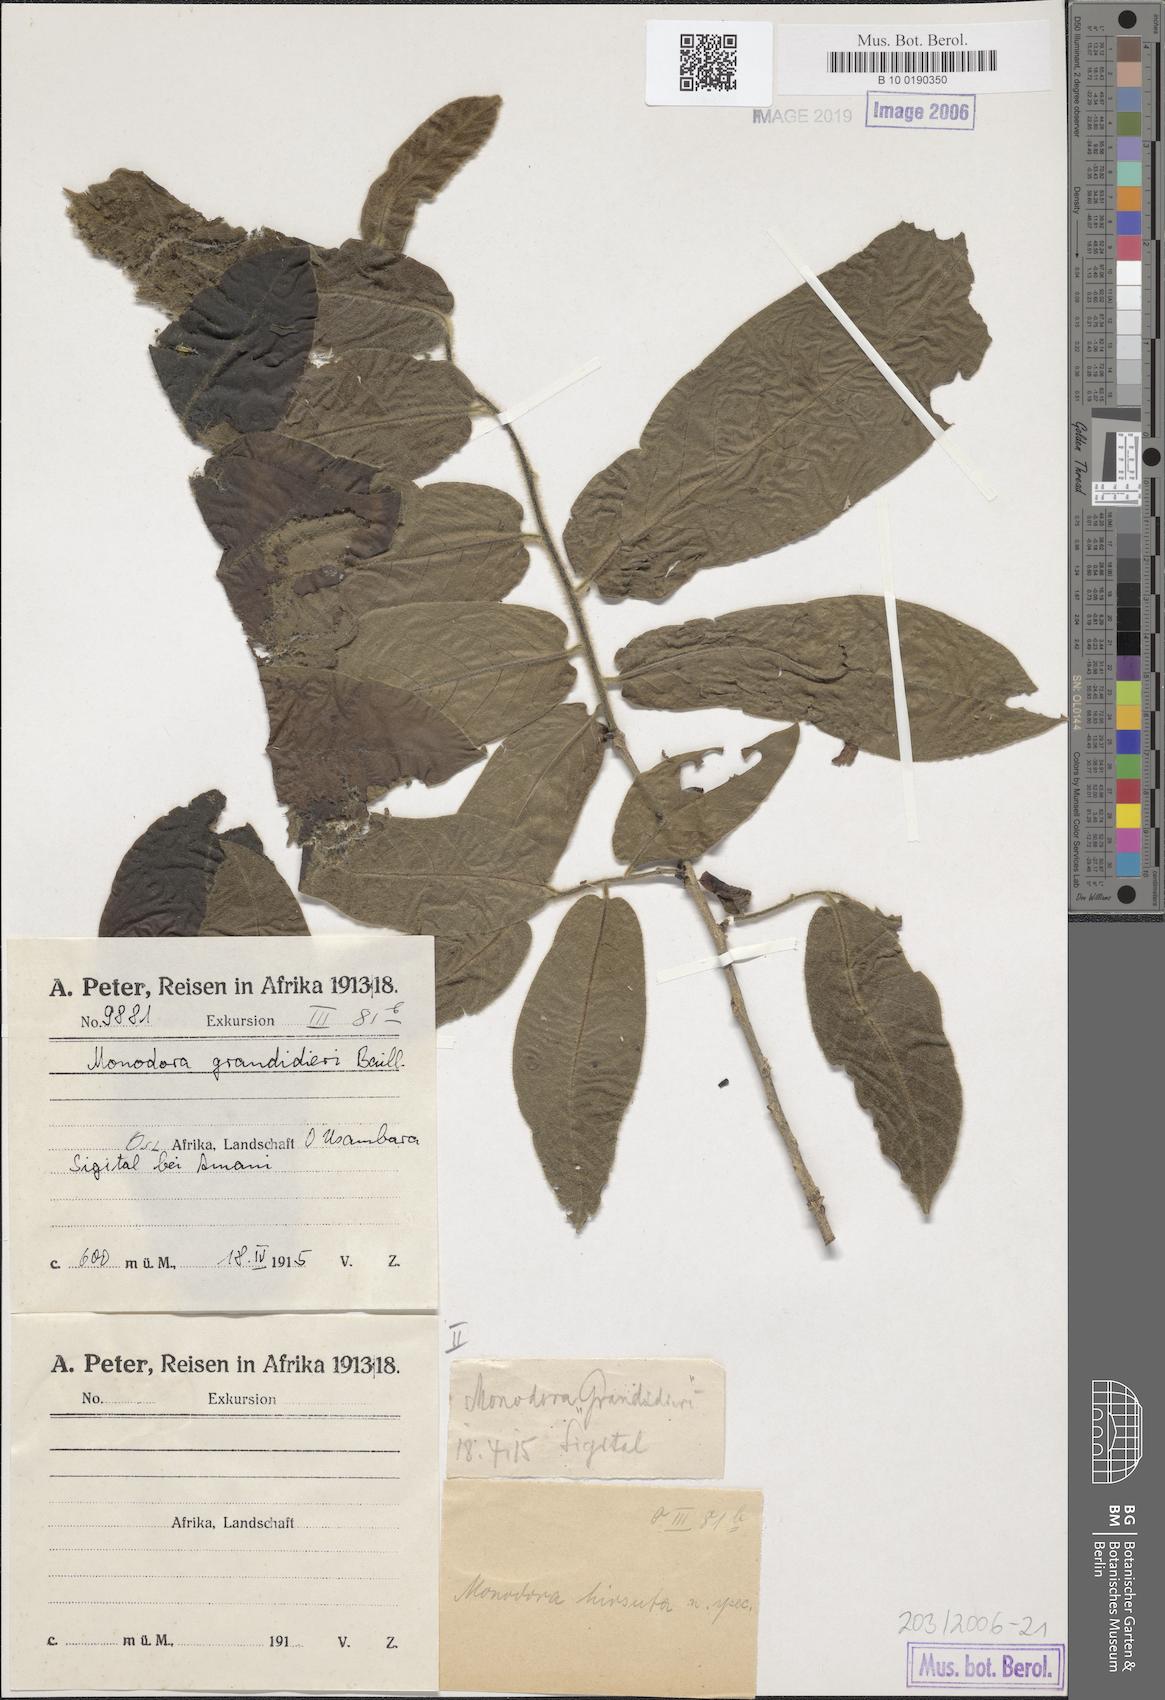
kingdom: Plantae
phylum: Tracheophyta
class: Magnoliopsida
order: Magnoliales
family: Annonaceae
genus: Monodora
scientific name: Monodora grandidieri
